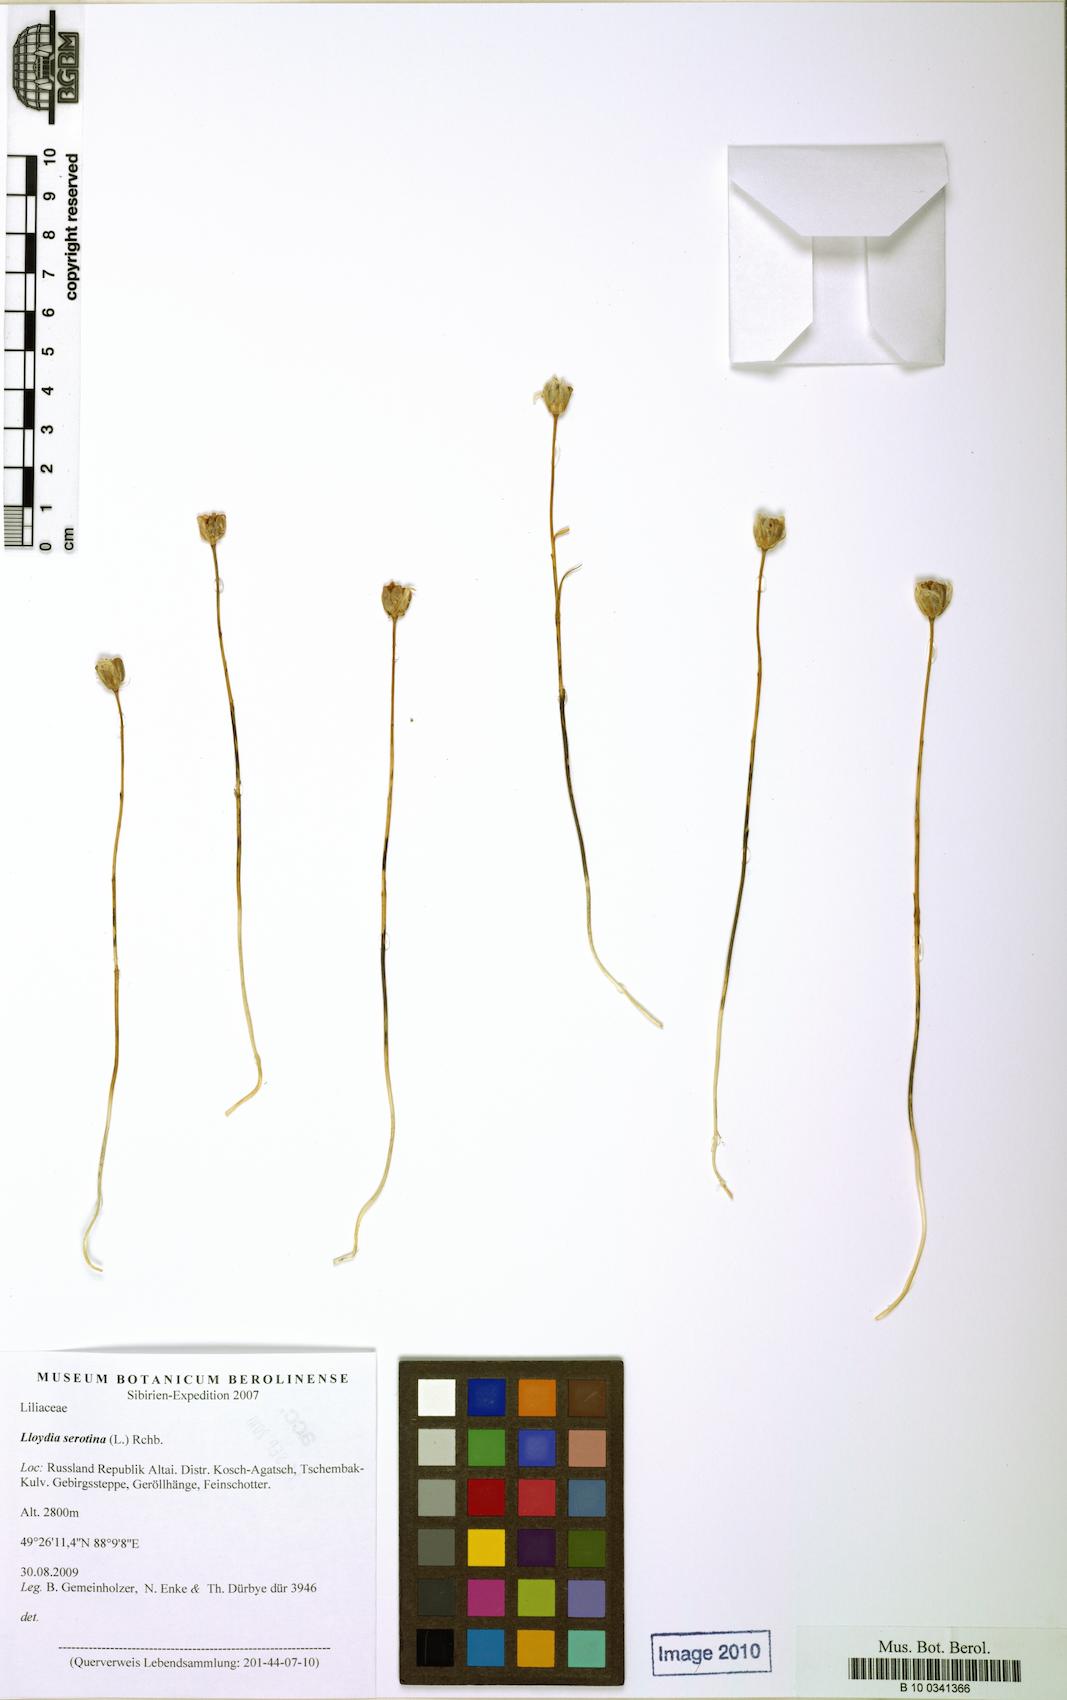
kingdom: Plantae
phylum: Tracheophyta
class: Liliopsida
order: Liliales
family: Liliaceae
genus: Gagea
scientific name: Gagea serotina
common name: Snowdon lily
